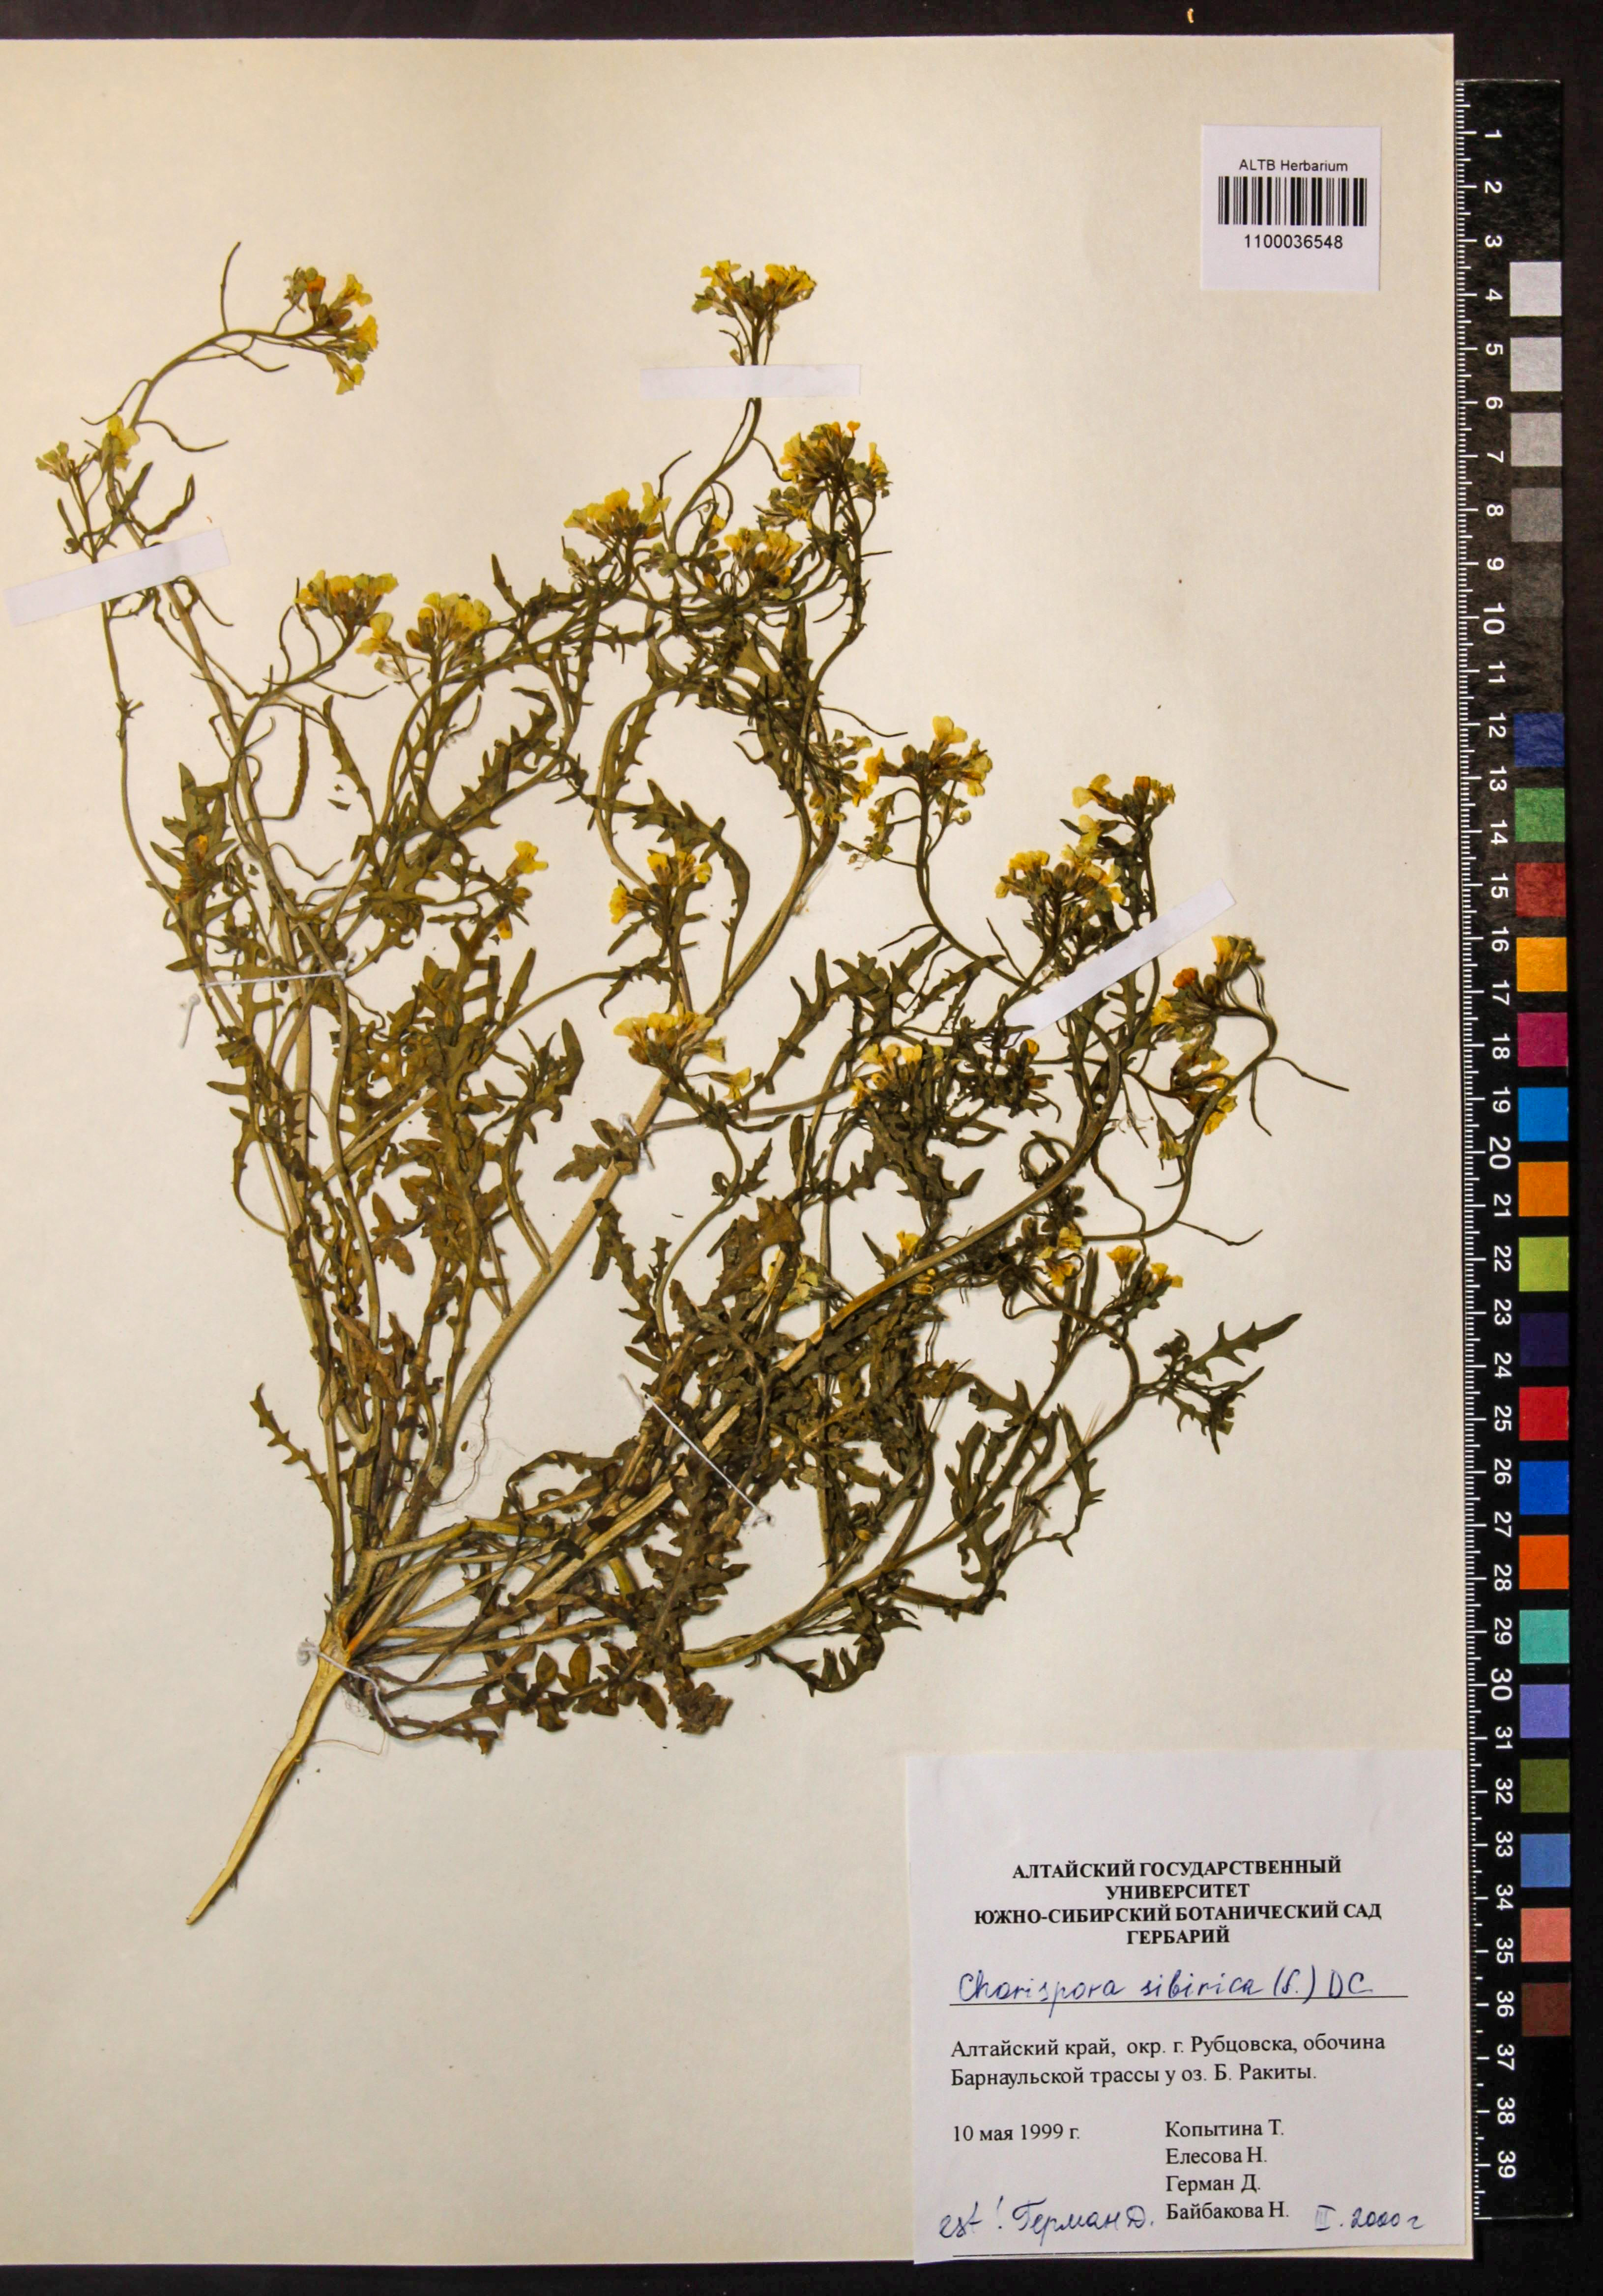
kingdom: Plantae
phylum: Tracheophyta
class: Magnoliopsida
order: Brassicales
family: Brassicaceae
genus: Chorispora
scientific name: Chorispora sibirica
